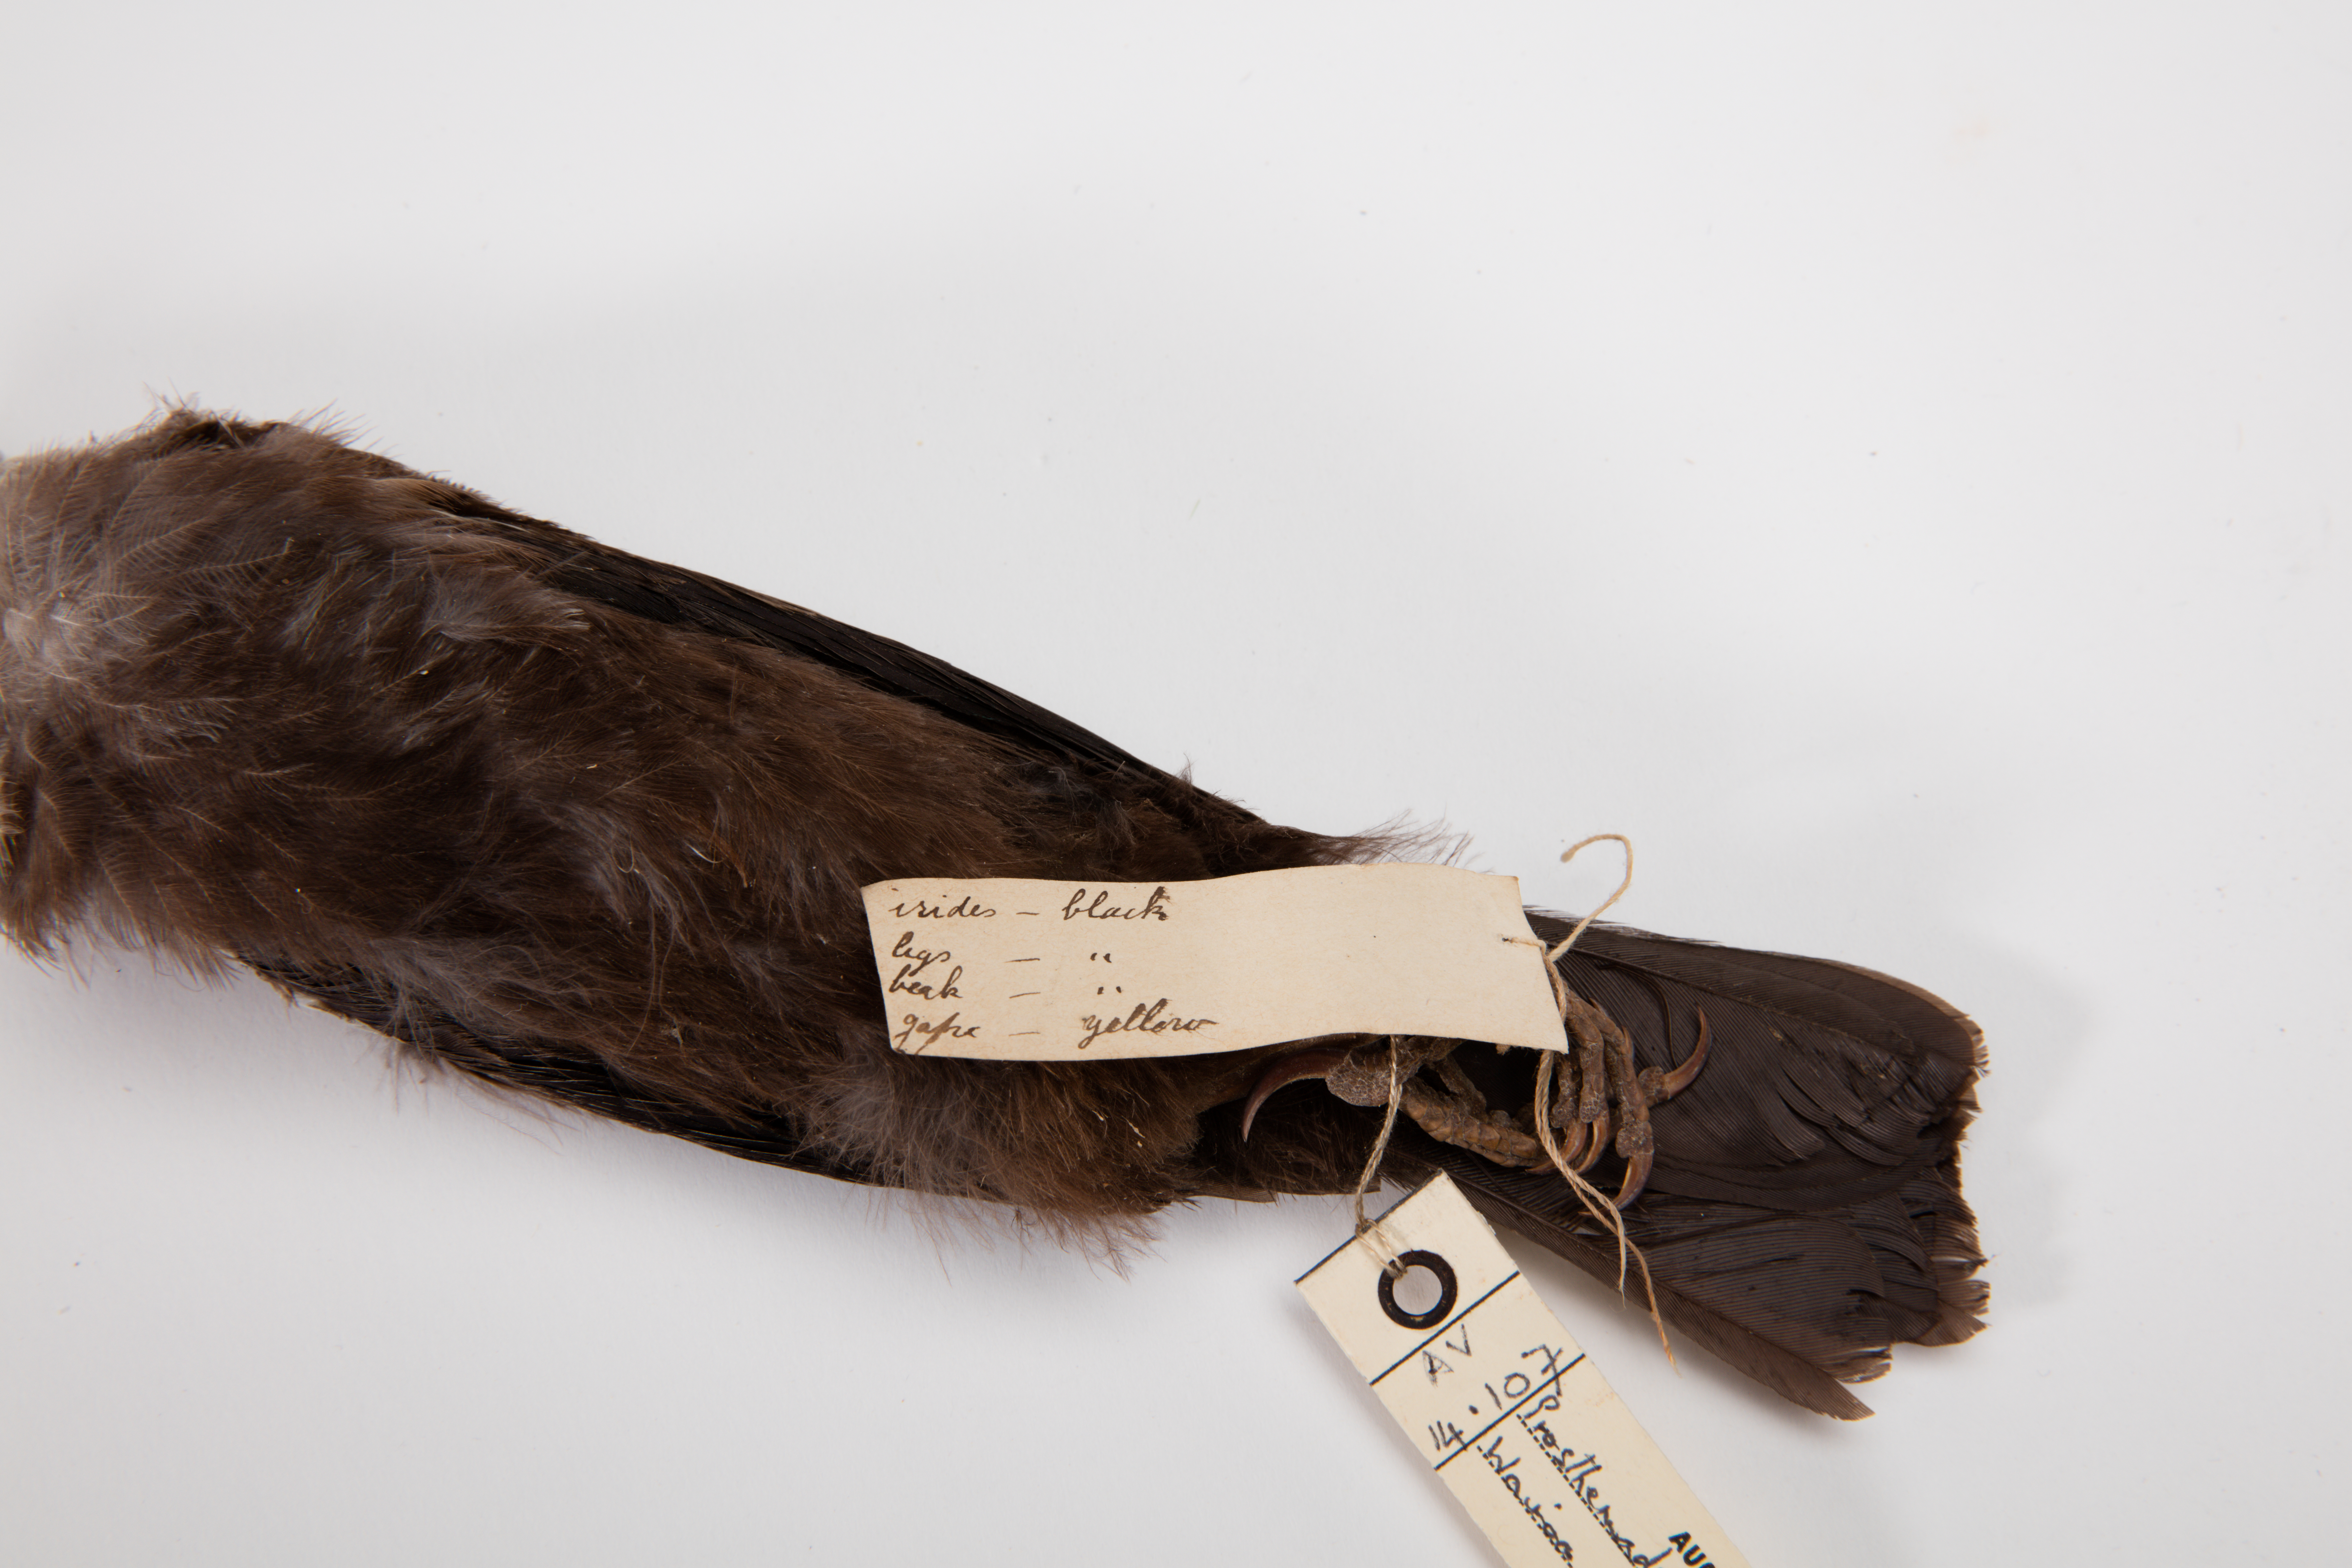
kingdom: Animalia
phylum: Chordata
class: Aves
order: Passeriformes
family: Meliphagidae
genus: Prosthemadera
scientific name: Prosthemadera novaeseelandiae
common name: Tui
